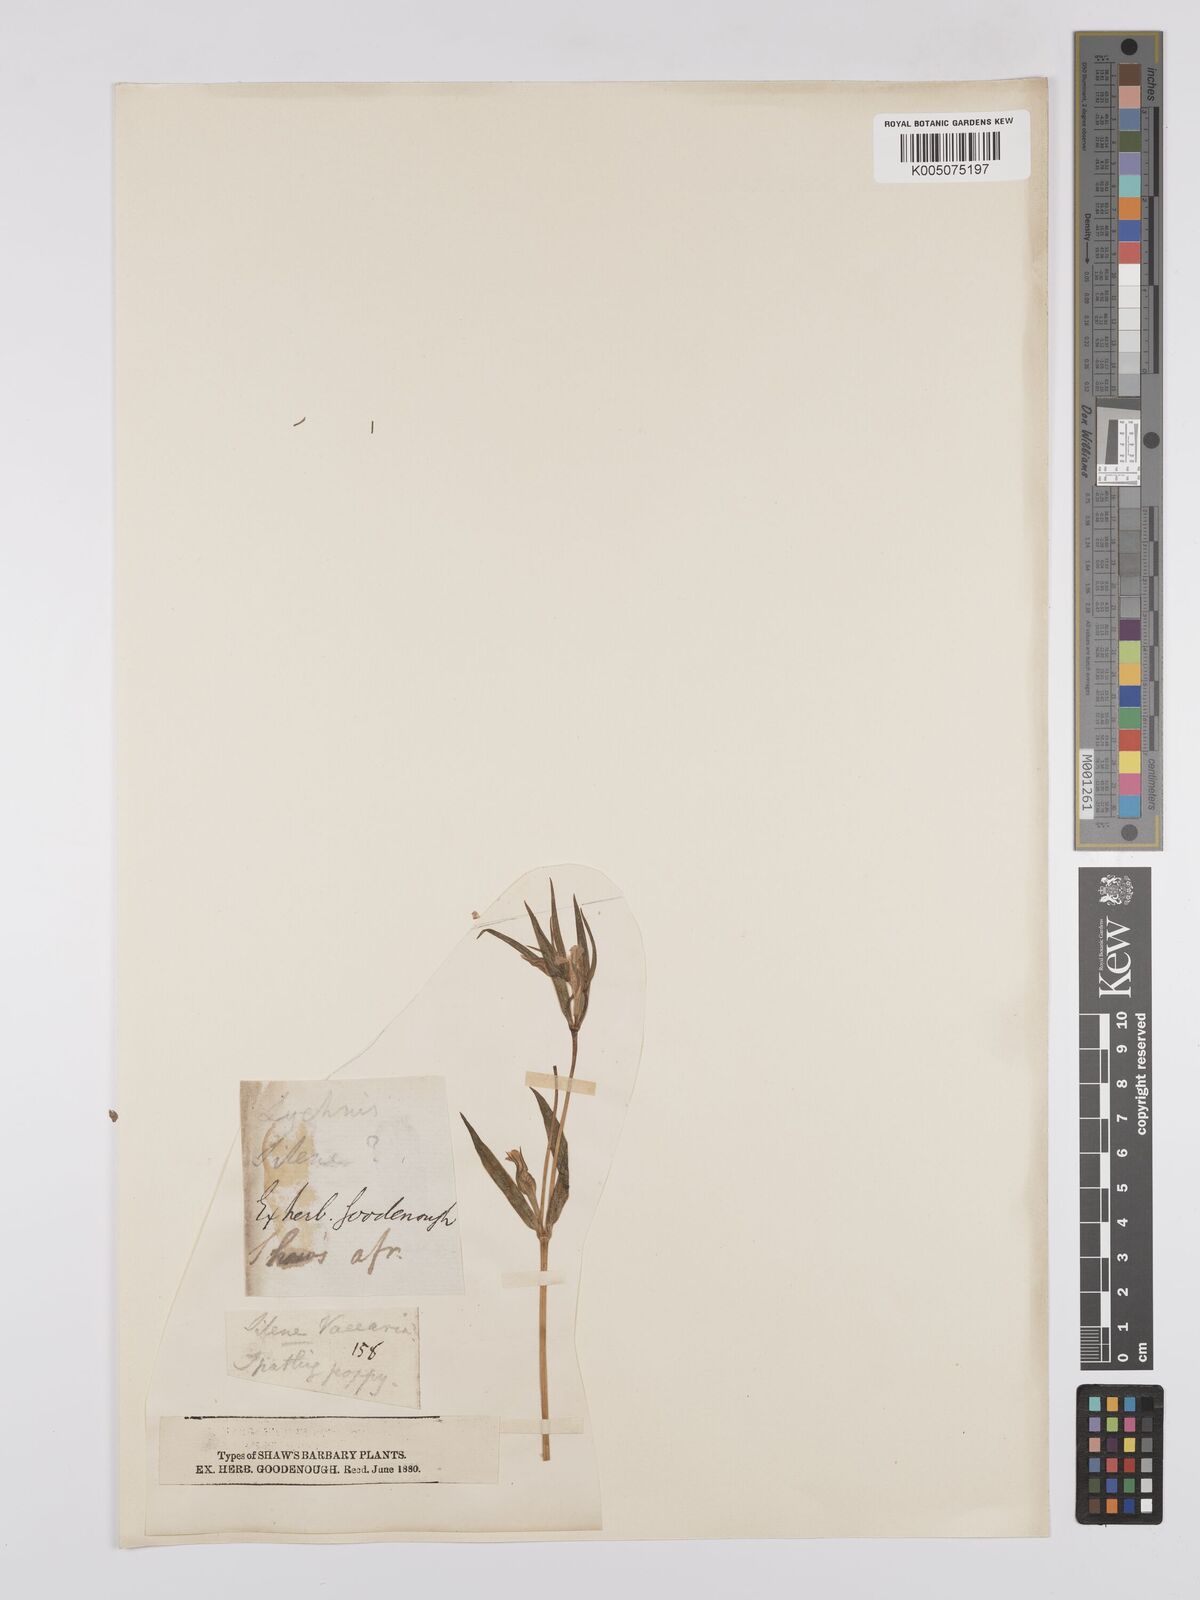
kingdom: Plantae
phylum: Tracheophyta
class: Magnoliopsida
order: Caryophyllales
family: Caryophyllaceae
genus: Silene
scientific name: Silene stricta
